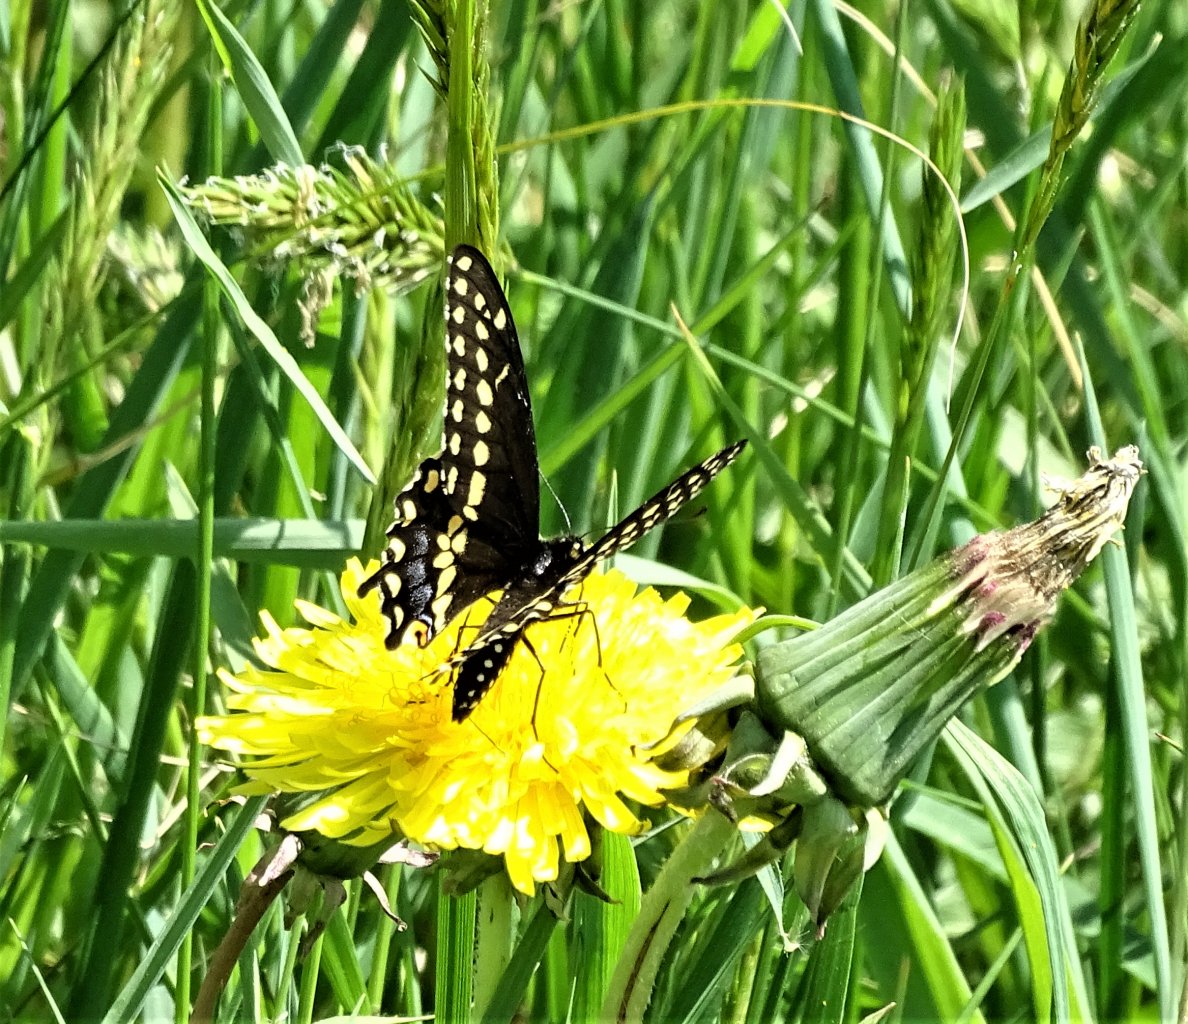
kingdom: Animalia
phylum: Arthropoda
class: Insecta
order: Lepidoptera
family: Papilionidae
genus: Papilio
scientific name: Papilio polyxenes
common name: Black Swallowtail
